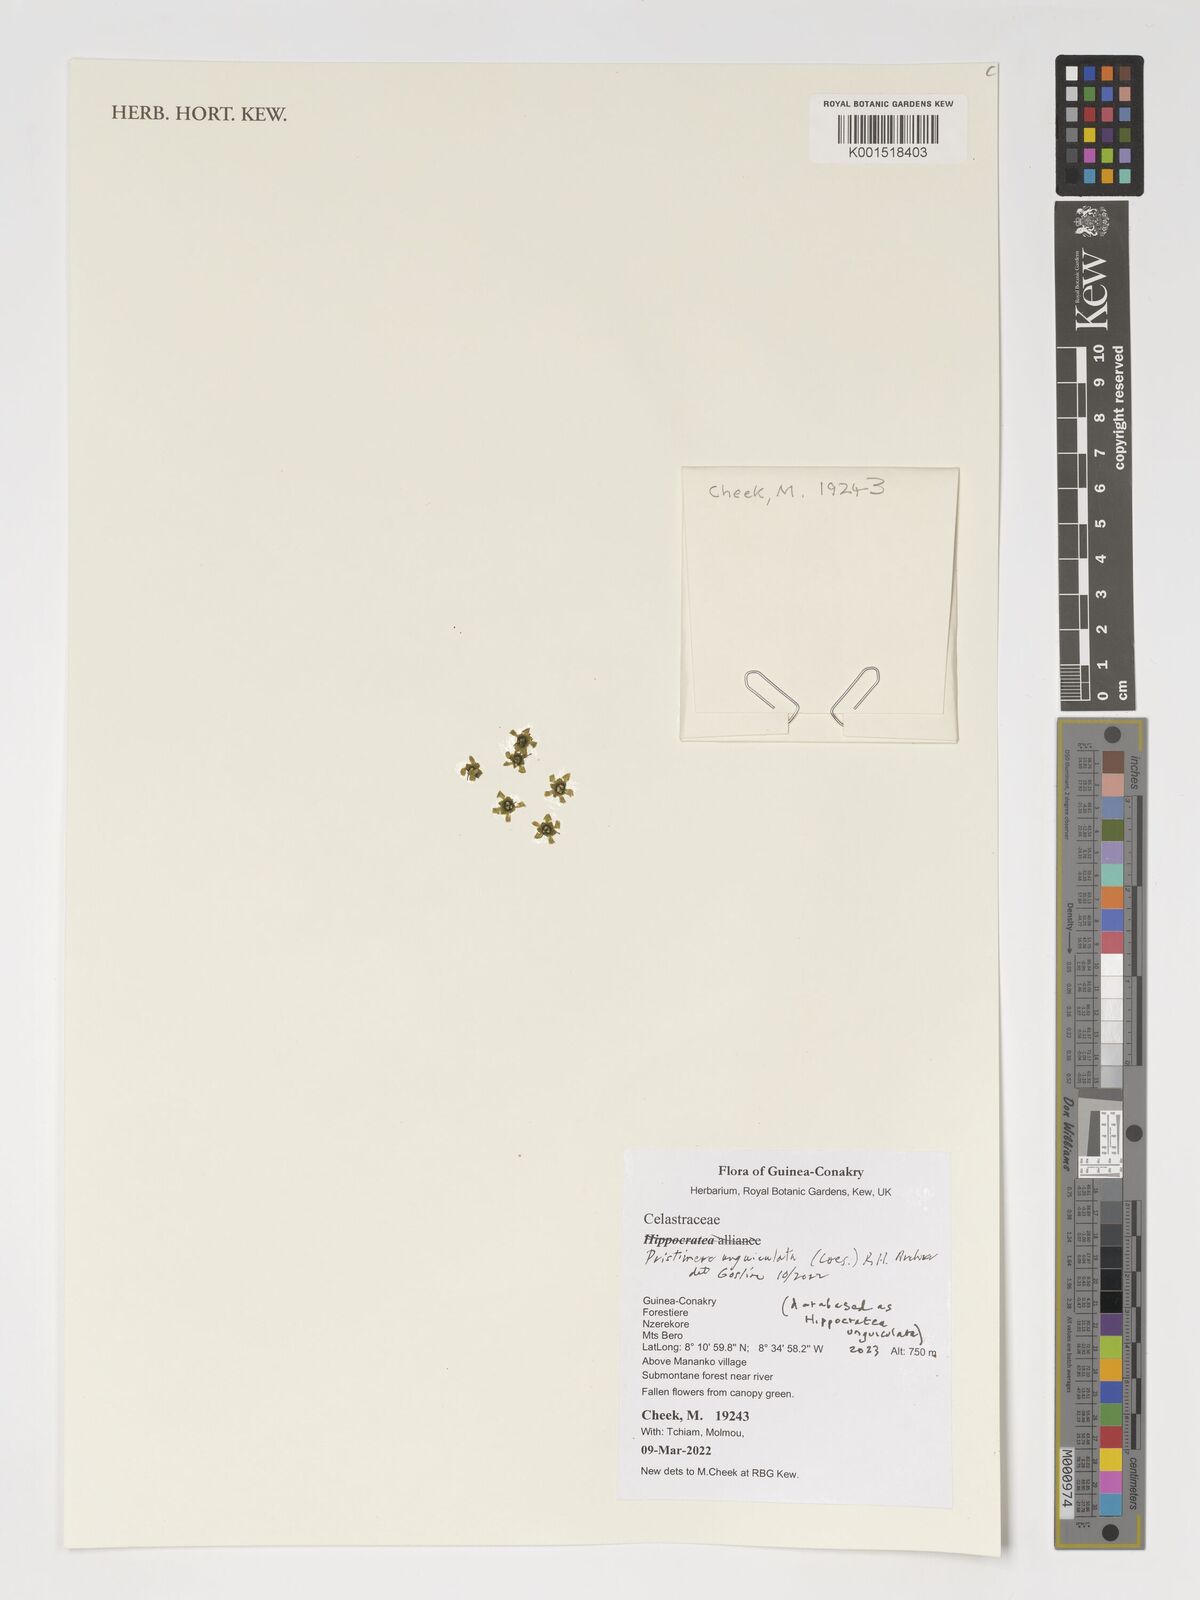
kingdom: Plantae
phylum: Tracheophyta
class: Magnoliopsida
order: Celastrales
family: Celastraceae
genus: Pristimera
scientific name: Pristimera unguiculata
